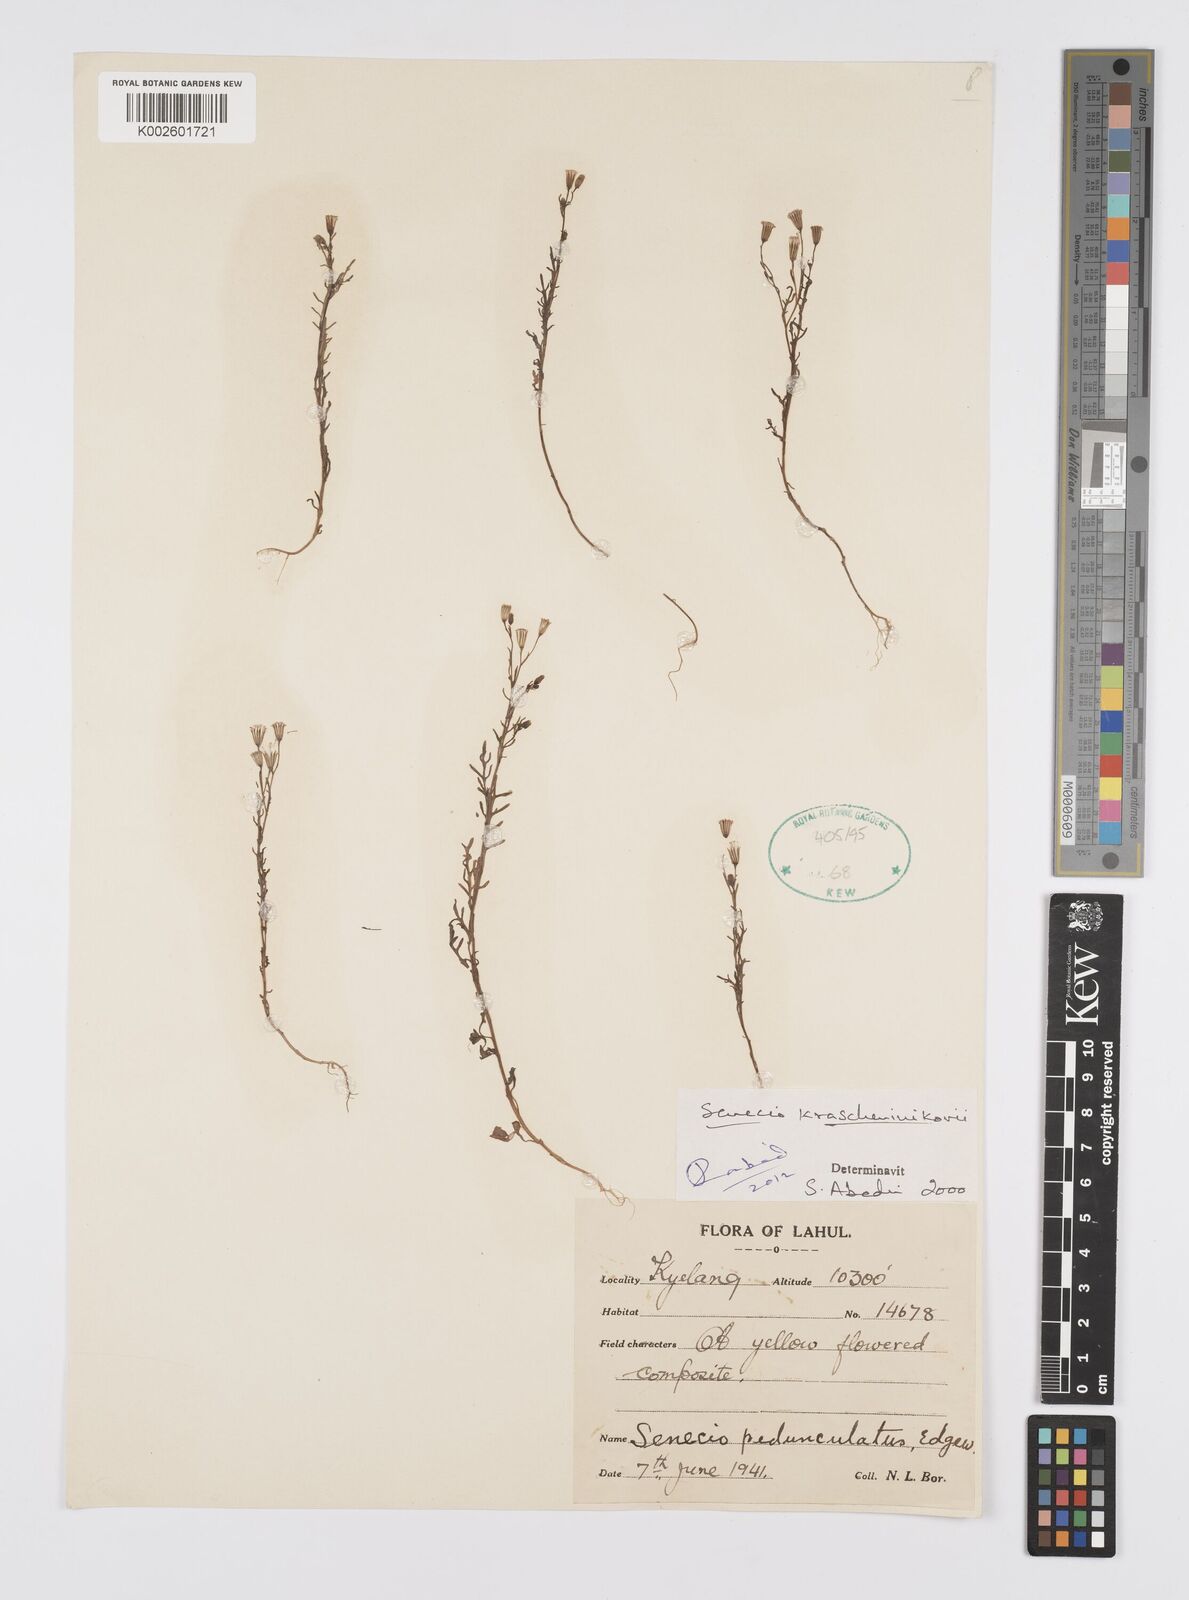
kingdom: Plantae
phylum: Tracheophyta
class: Magnoliopsida
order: Asterales
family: Asteraceae
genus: Senecio
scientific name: Senecio krascheninnikovii
